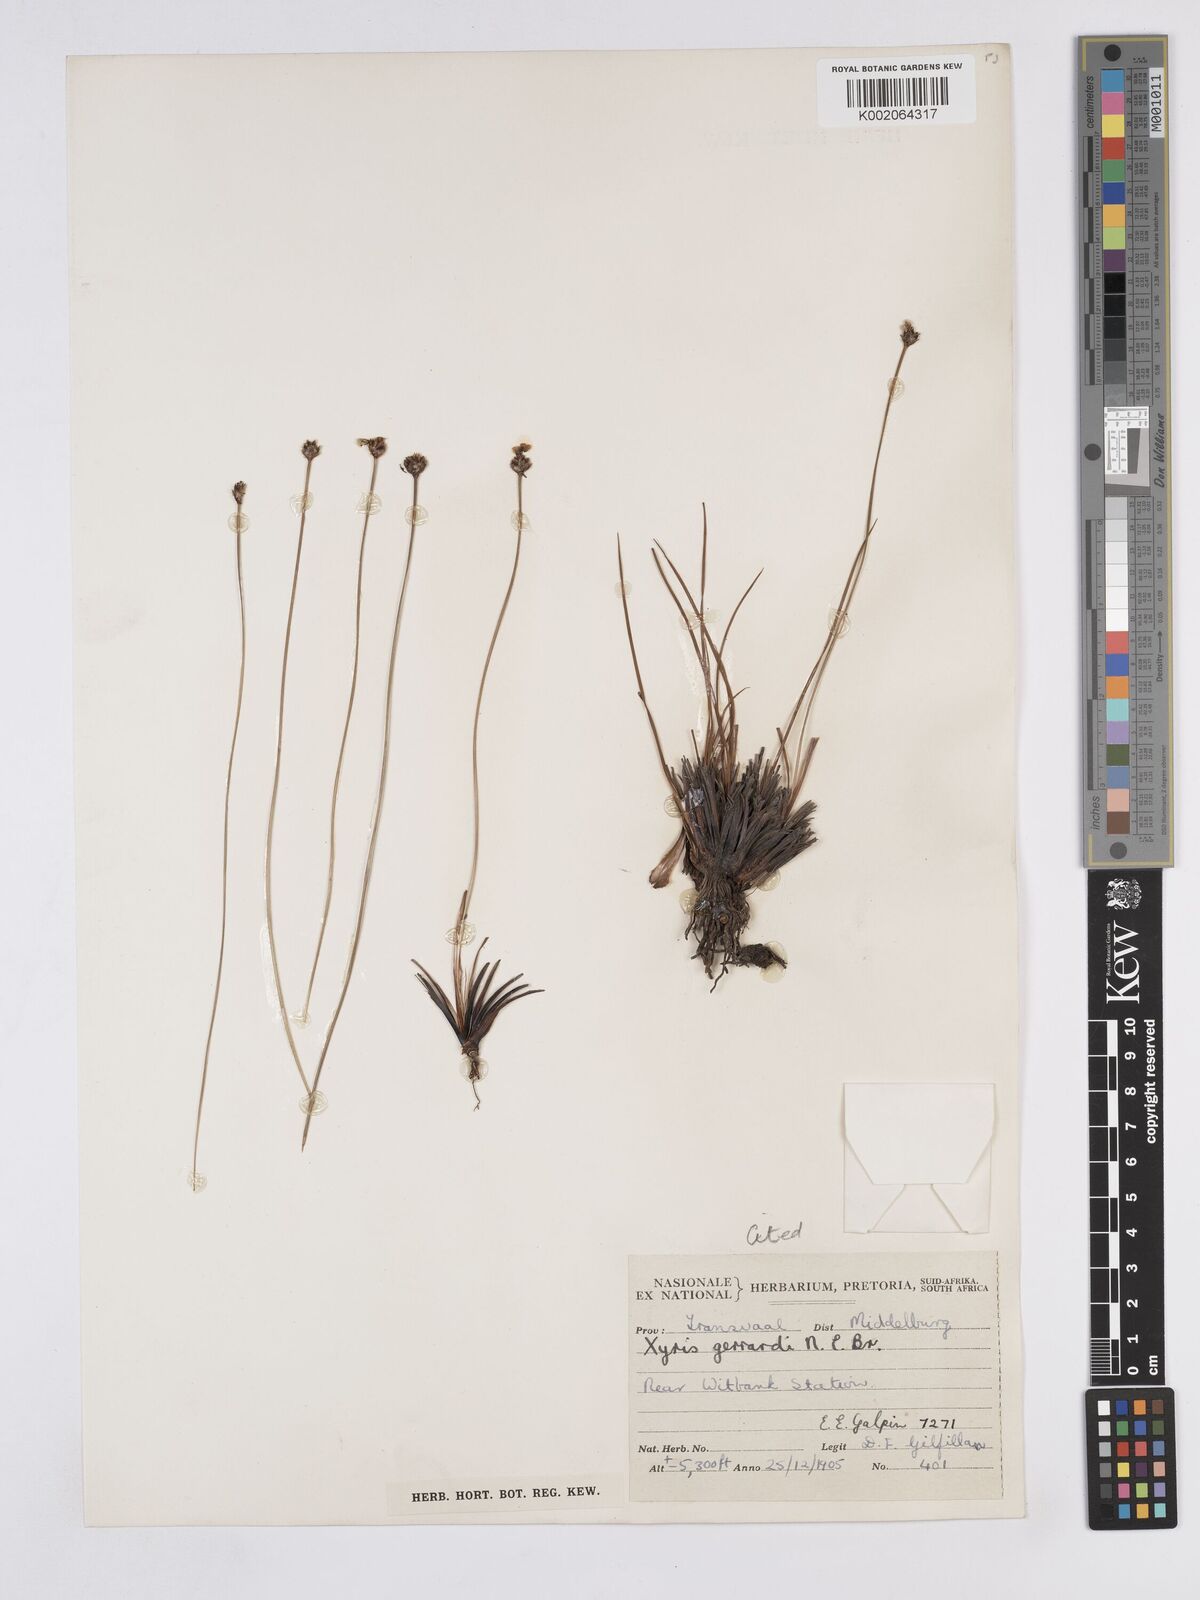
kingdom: Plantae
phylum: Tracheophyta
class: Liliopsida
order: Poales
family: Xyridaceae
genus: Xyris
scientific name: Xyris gerrardii
